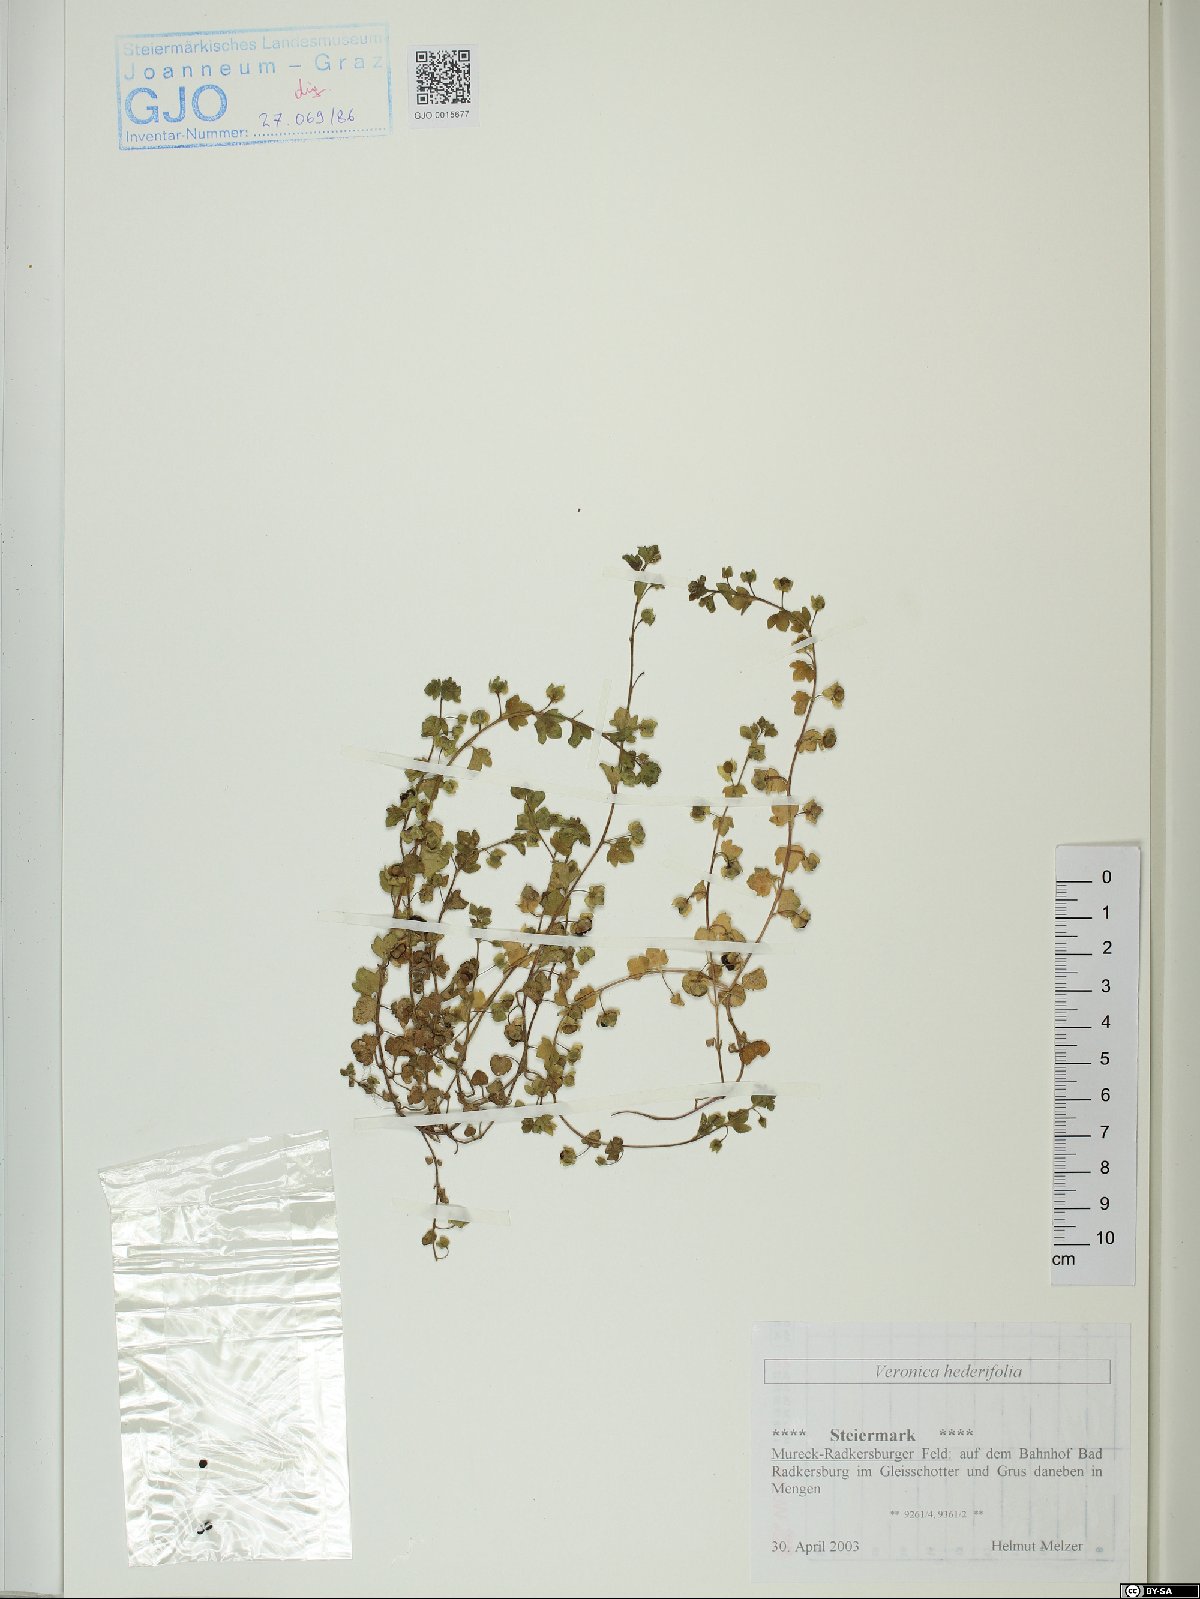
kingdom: Plantae
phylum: Tracheophyta
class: Magnoliopsida
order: Lamiales
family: Plantaginaceae
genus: Veronica
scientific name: Veronica hederifolia
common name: Ivy-leaved speedwell
